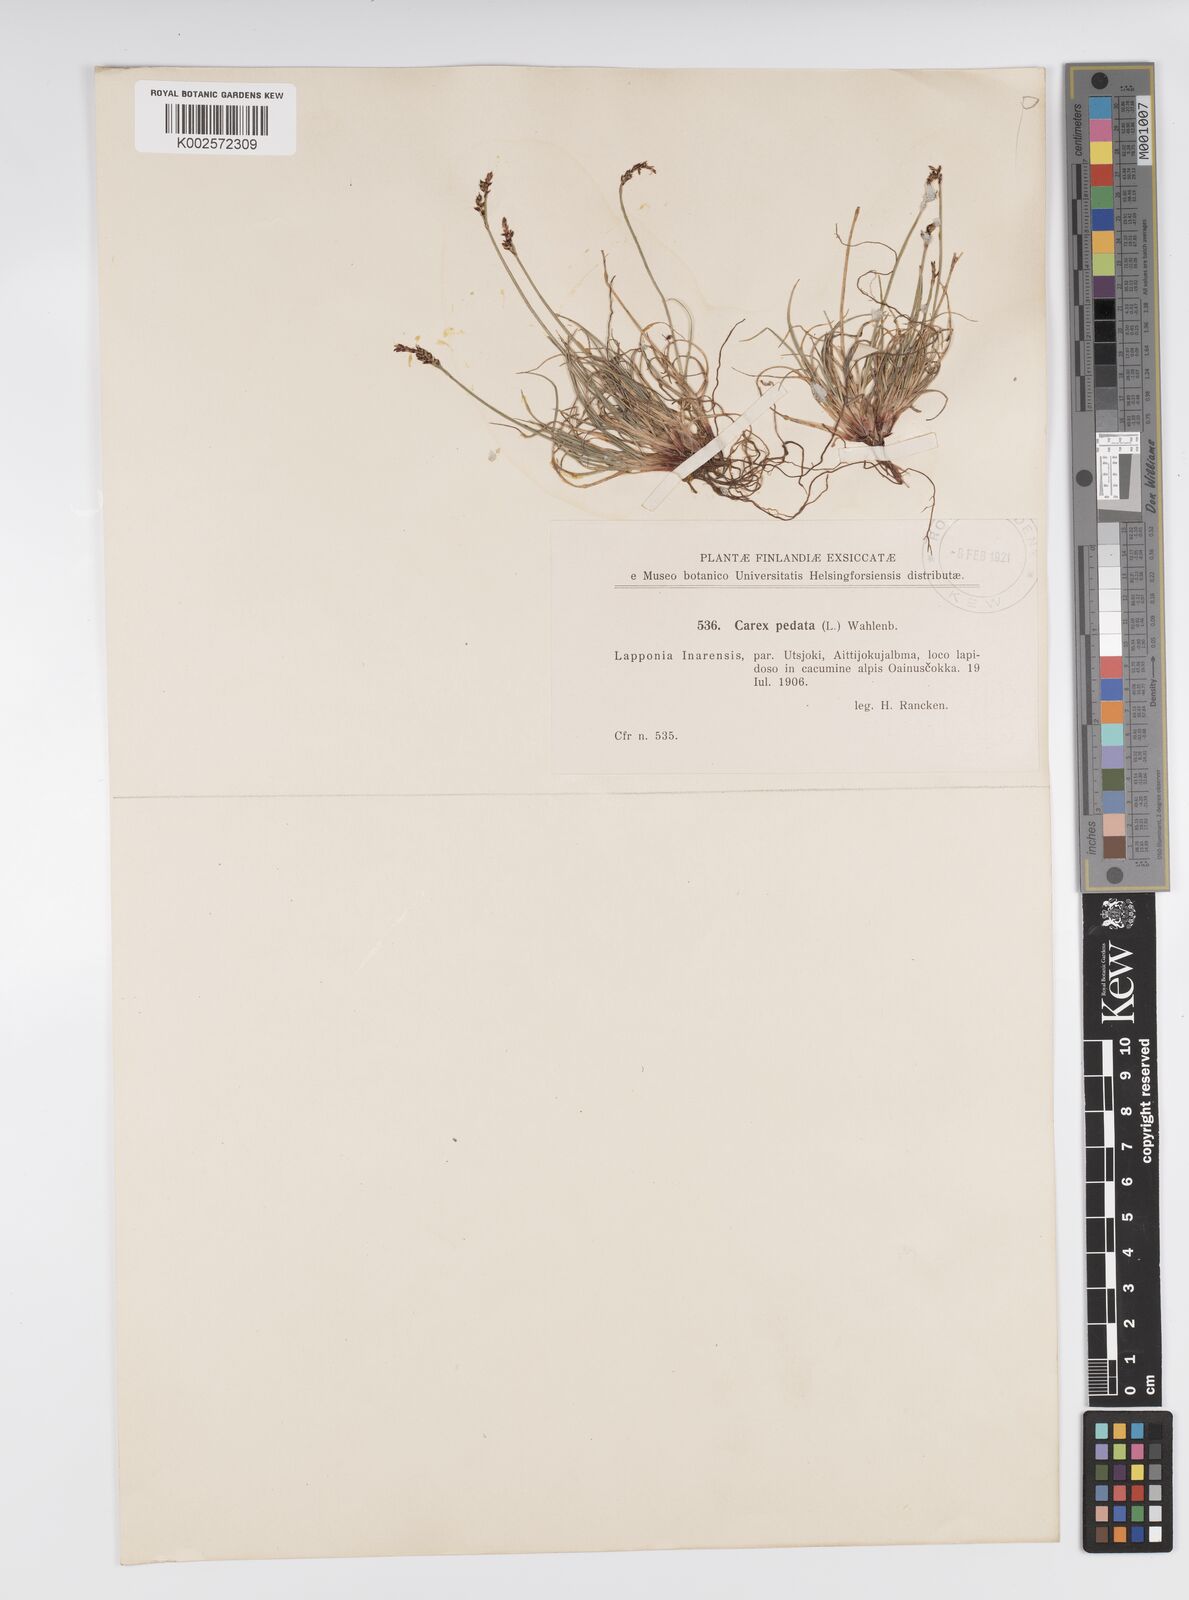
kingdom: Plantae
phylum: Tracheophyta
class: Liliopsida
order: Poales
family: Cyperaceae
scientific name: Cyperaceae
